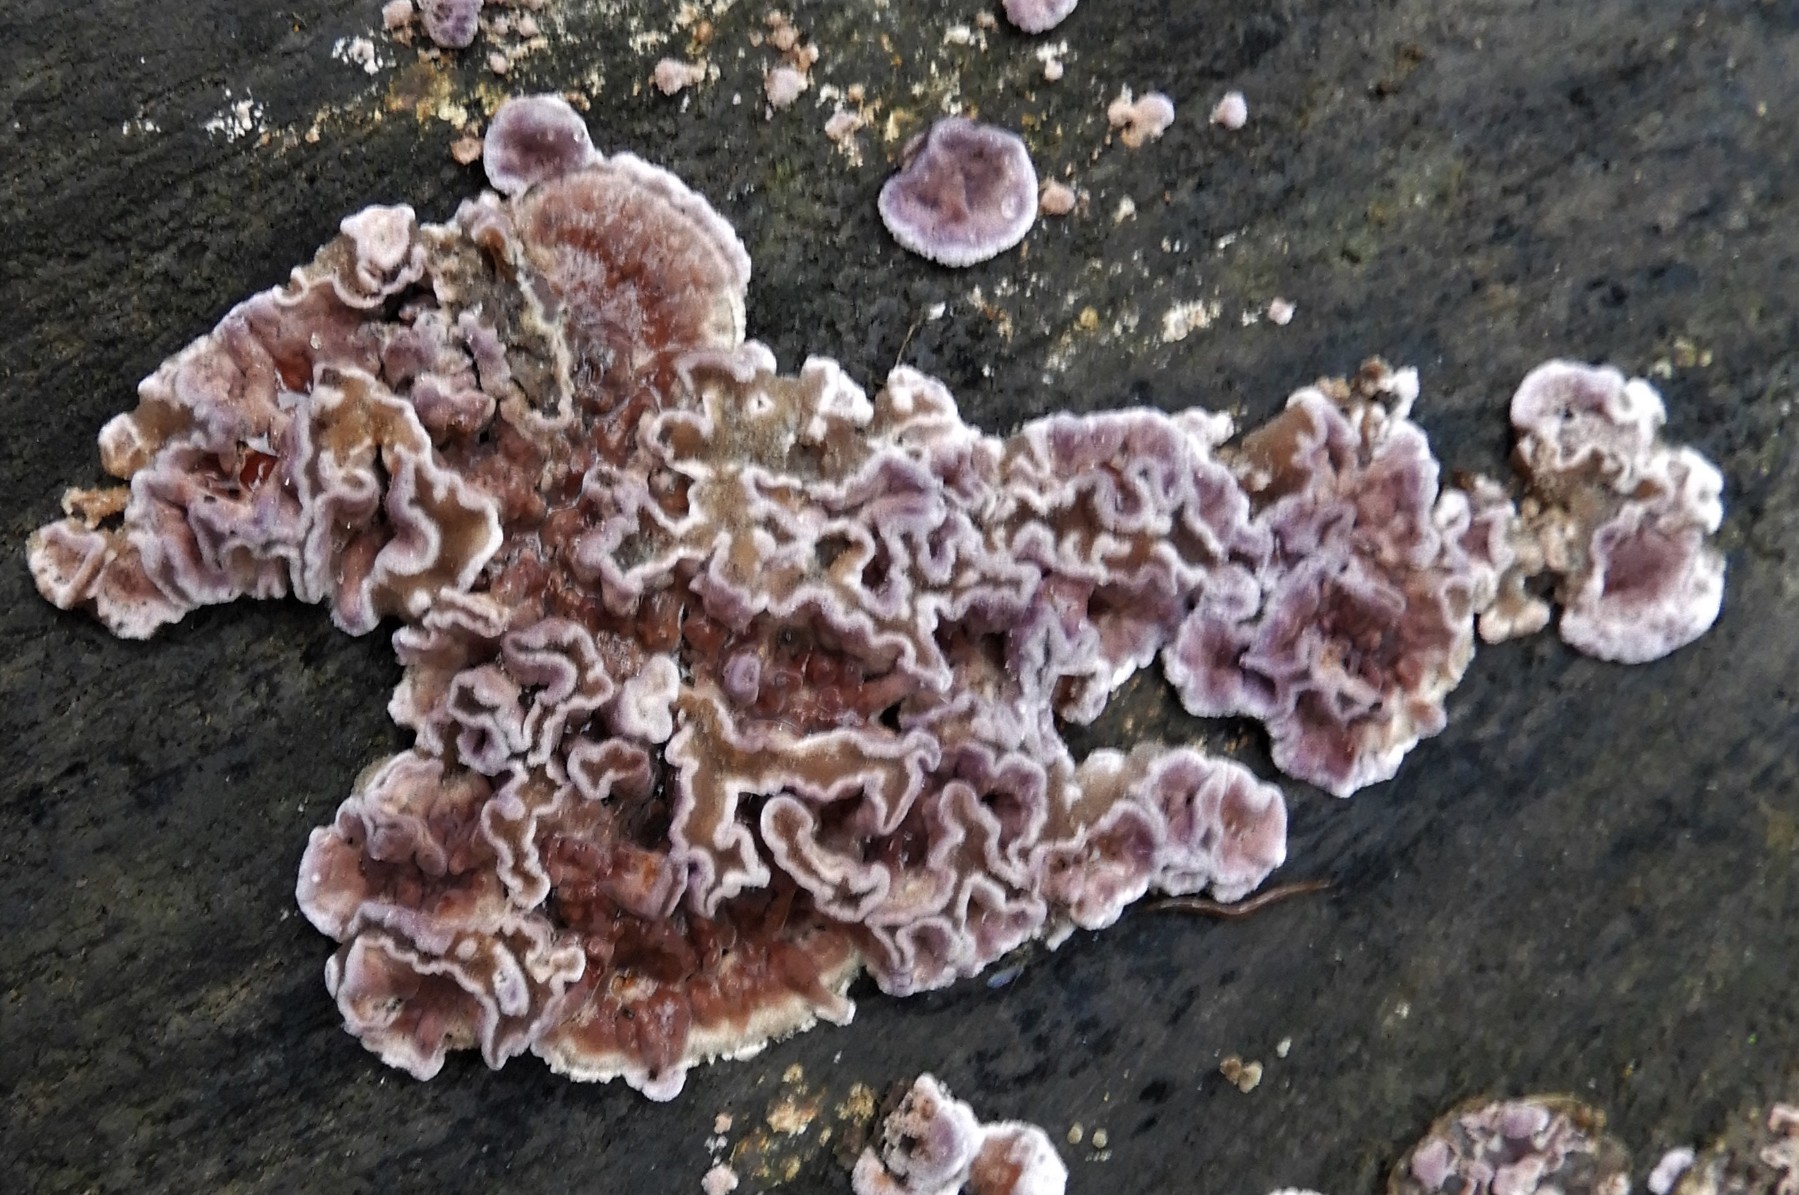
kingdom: Fungi
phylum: Basidiomycota
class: Agaricomycetes
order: Agaricales
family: Cyphellaceae
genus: Chondrostereum
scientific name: Chondrostereum purpureum
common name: purpurlædersvamp
